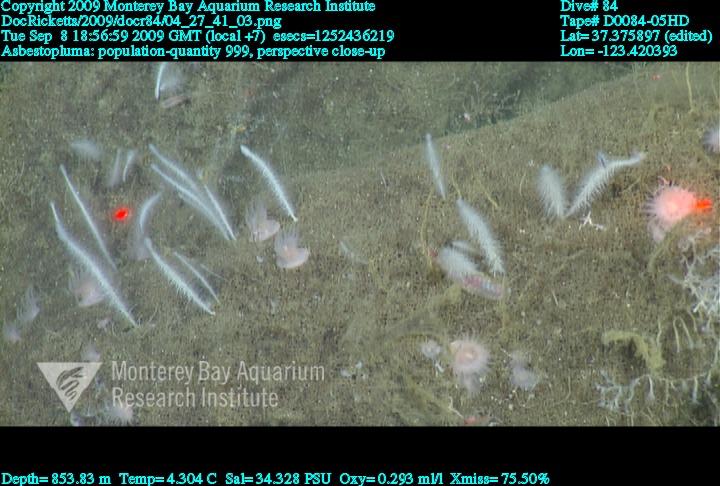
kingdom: Animalia
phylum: Porifera
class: Demospongiae
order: Poecilosclerida
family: Cladorhizidae
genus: Asbestopluma
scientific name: Asbestopluma
